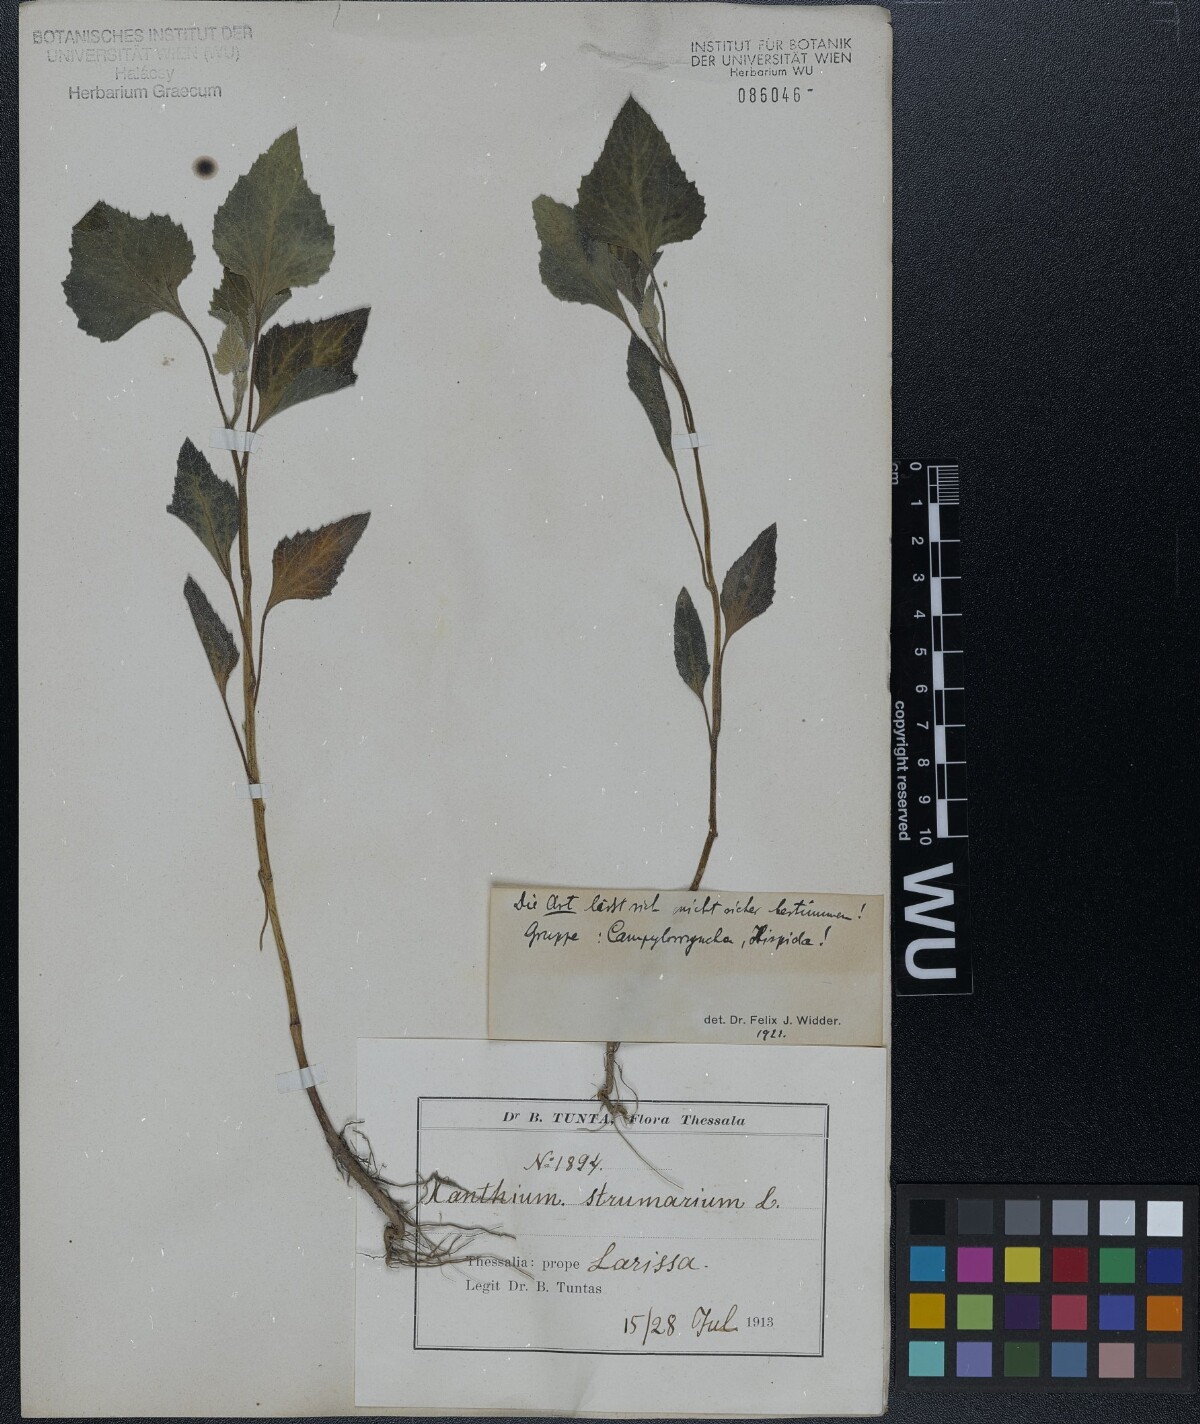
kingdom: Plantae
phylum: Tracheophyta
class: Magnoliopsida
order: Asterales
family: Asteraceae
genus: Xanthium
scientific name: Xanthium
